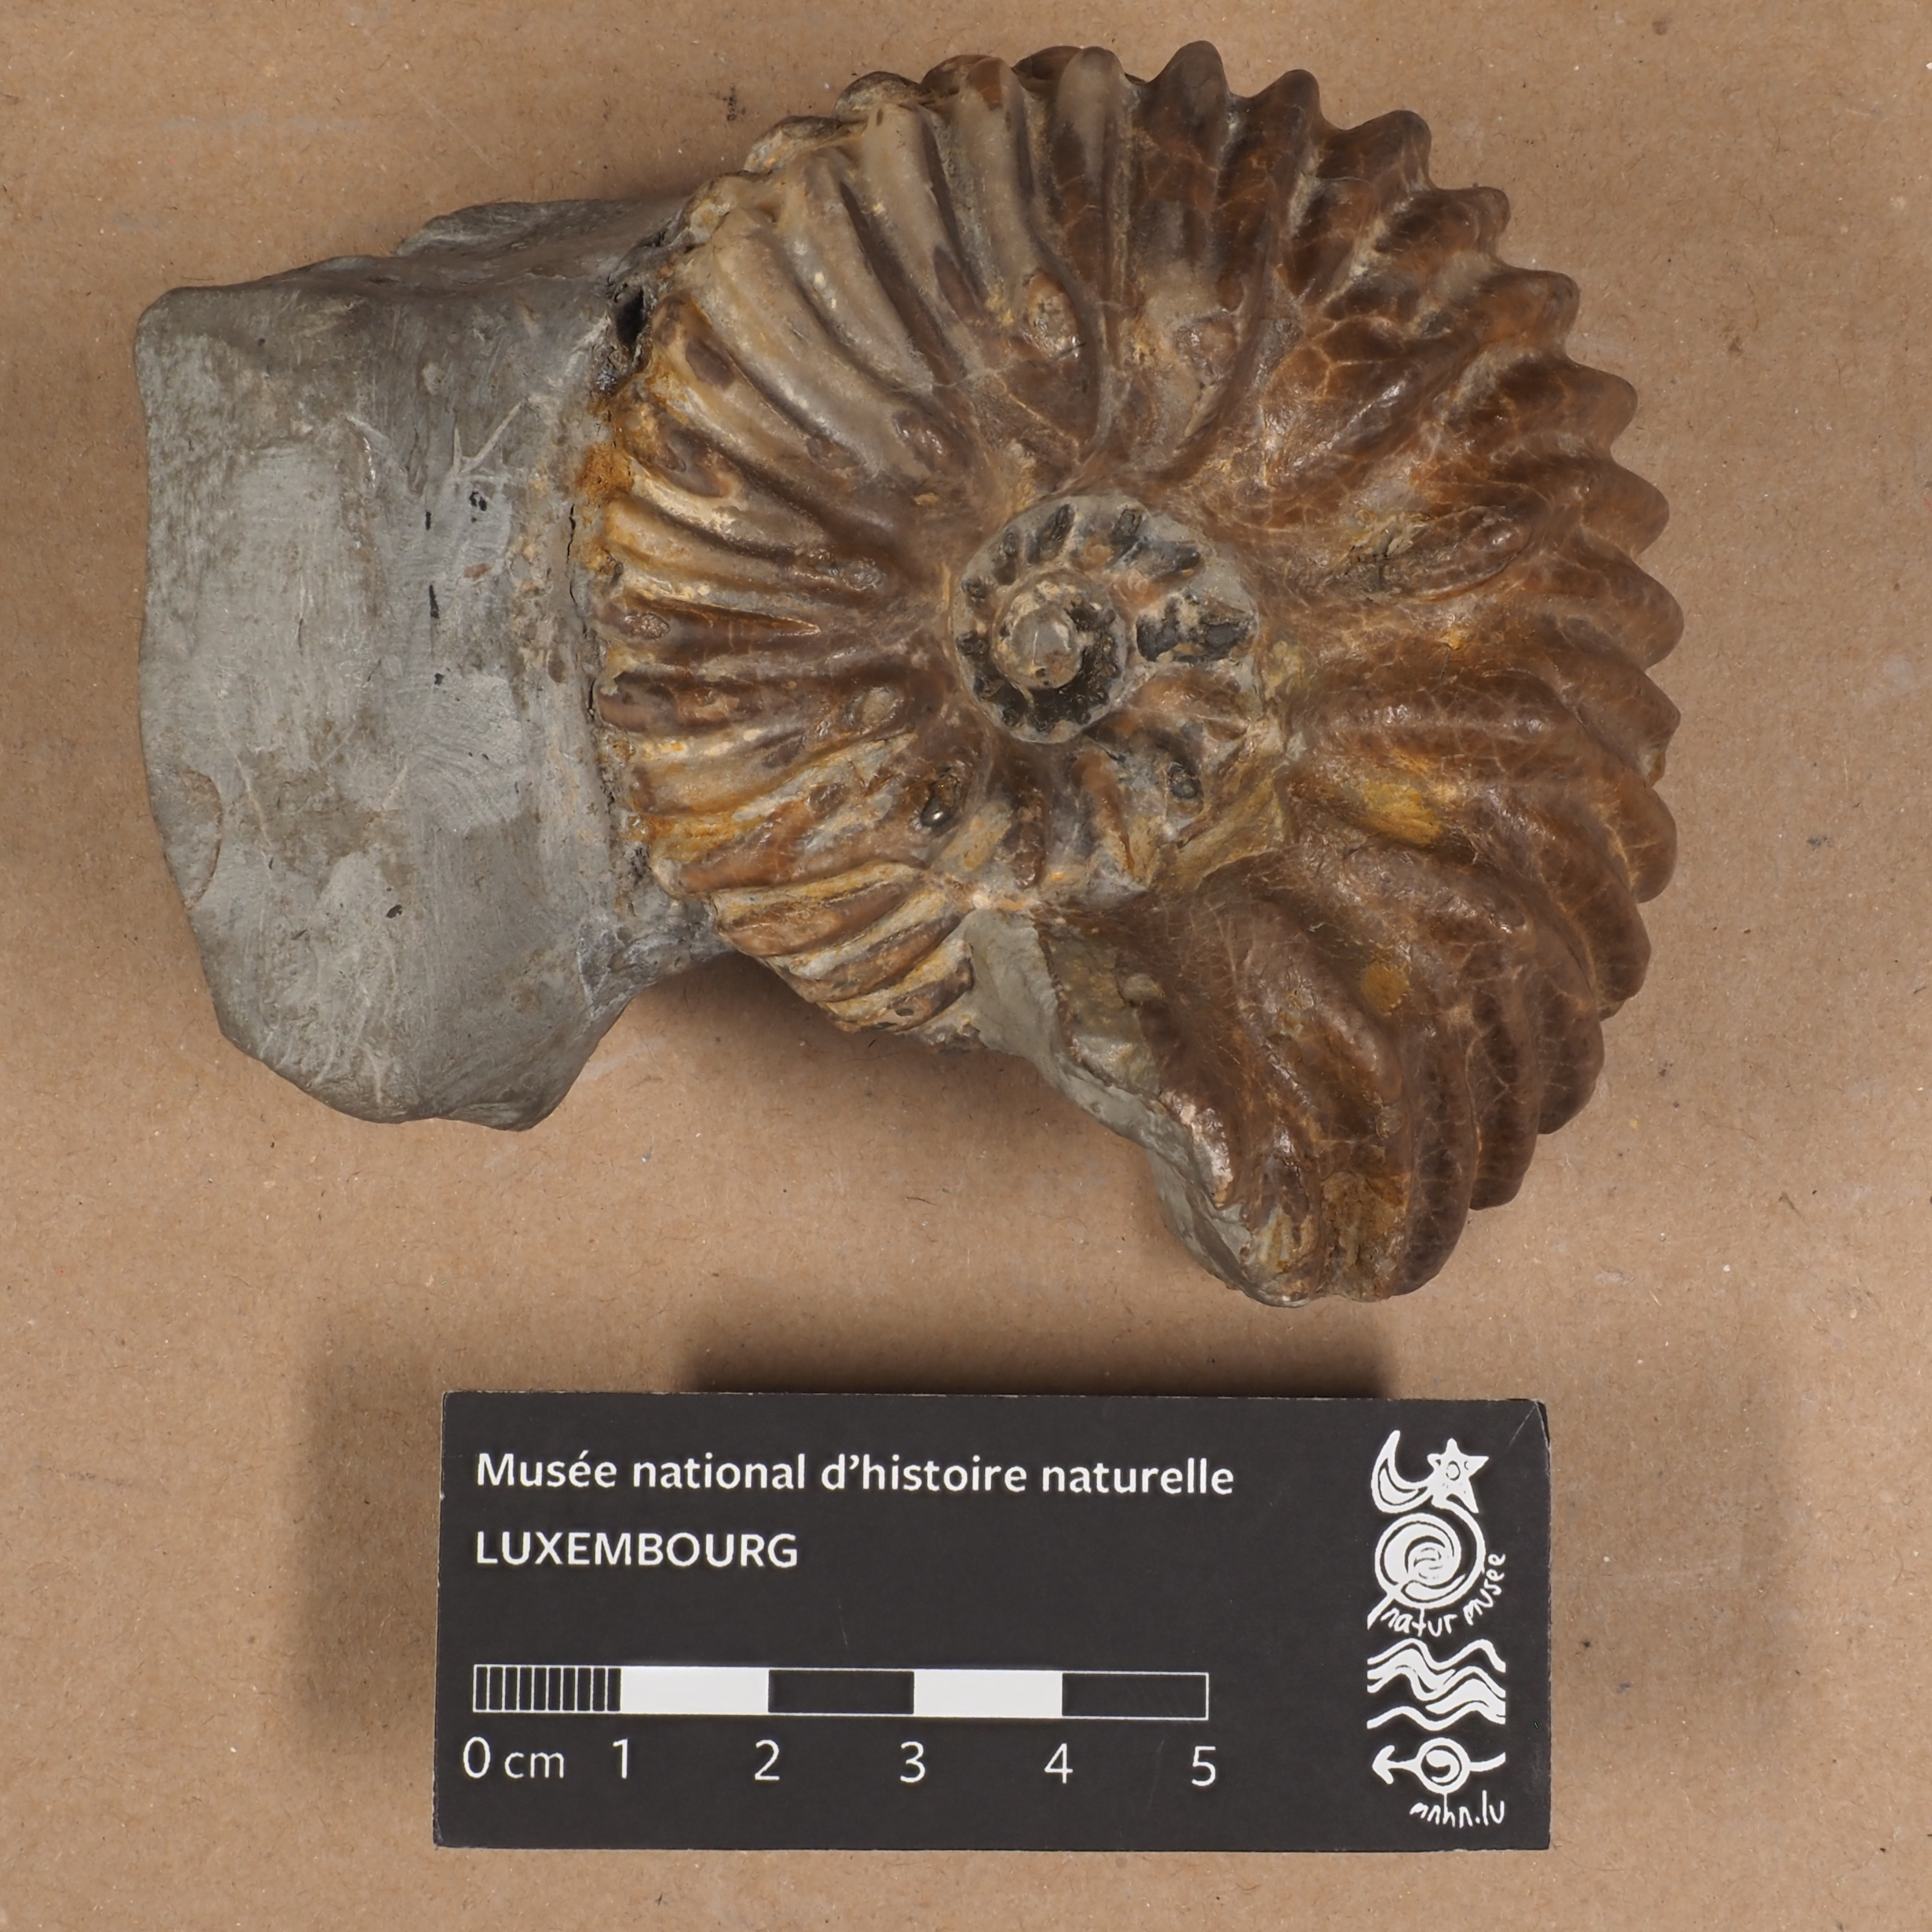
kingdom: Animalia
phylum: Arthropoda
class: Insecta
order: Coleoptera
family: Curculionidae
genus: Hoplites
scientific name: Hoplites interruptus
